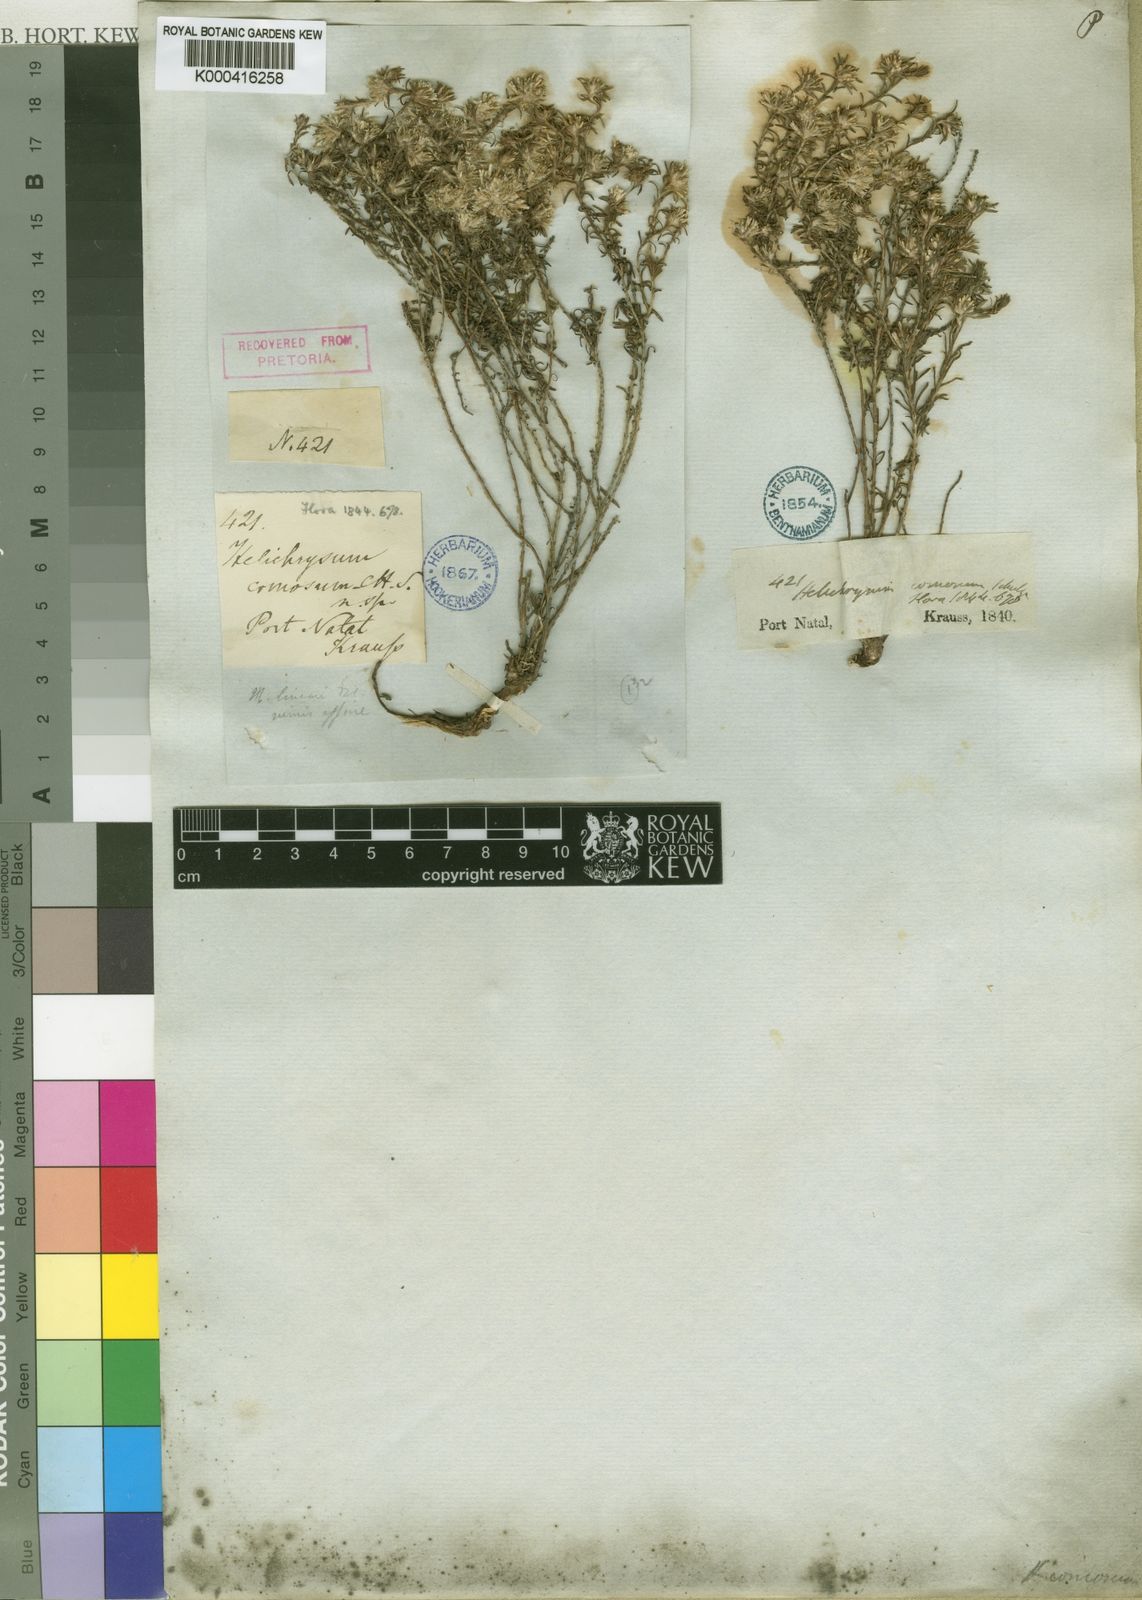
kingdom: Plantae
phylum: Tracheophyta
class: Magnoliopsida
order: Asterales
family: Asteraceae
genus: Helichrysum
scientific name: Helichrysum asperum
